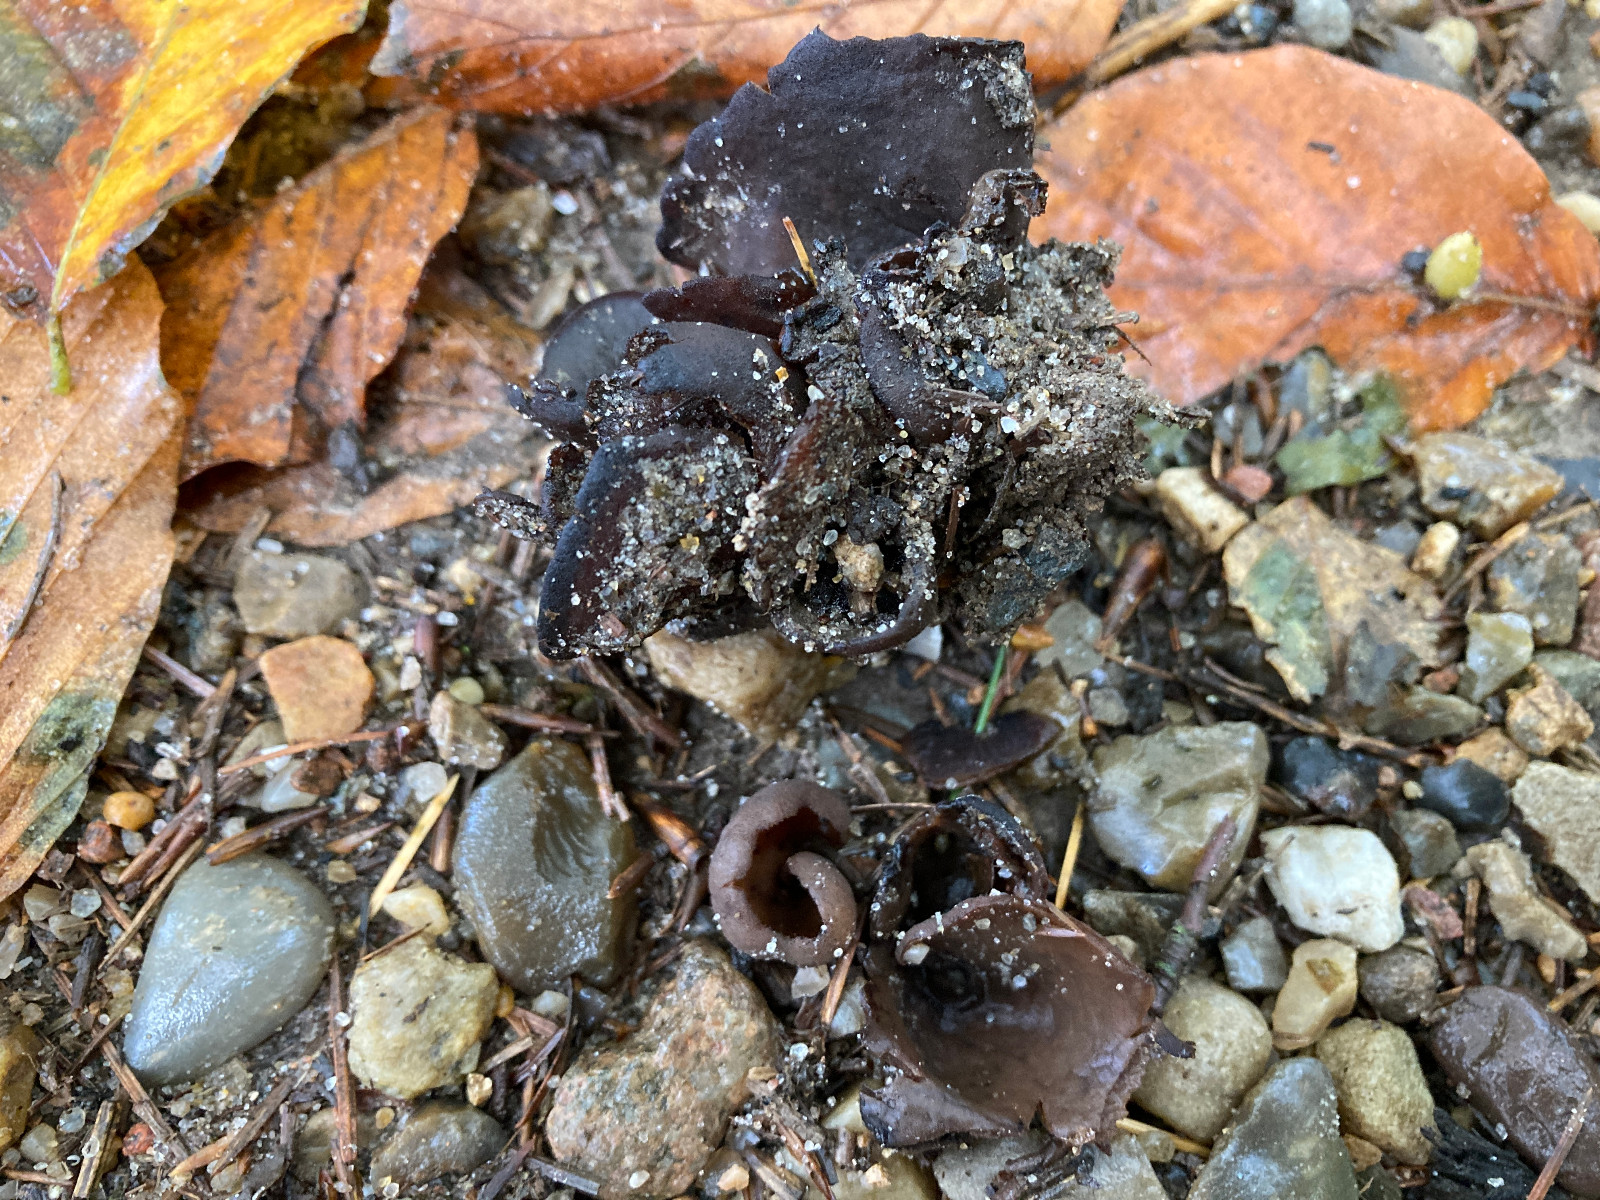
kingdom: Fungi
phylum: Ascomycota
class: Pezizomycetes
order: Pezizales
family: Otideaceae
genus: Otidea
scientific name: Otidea bufonia
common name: brun ørebæger
